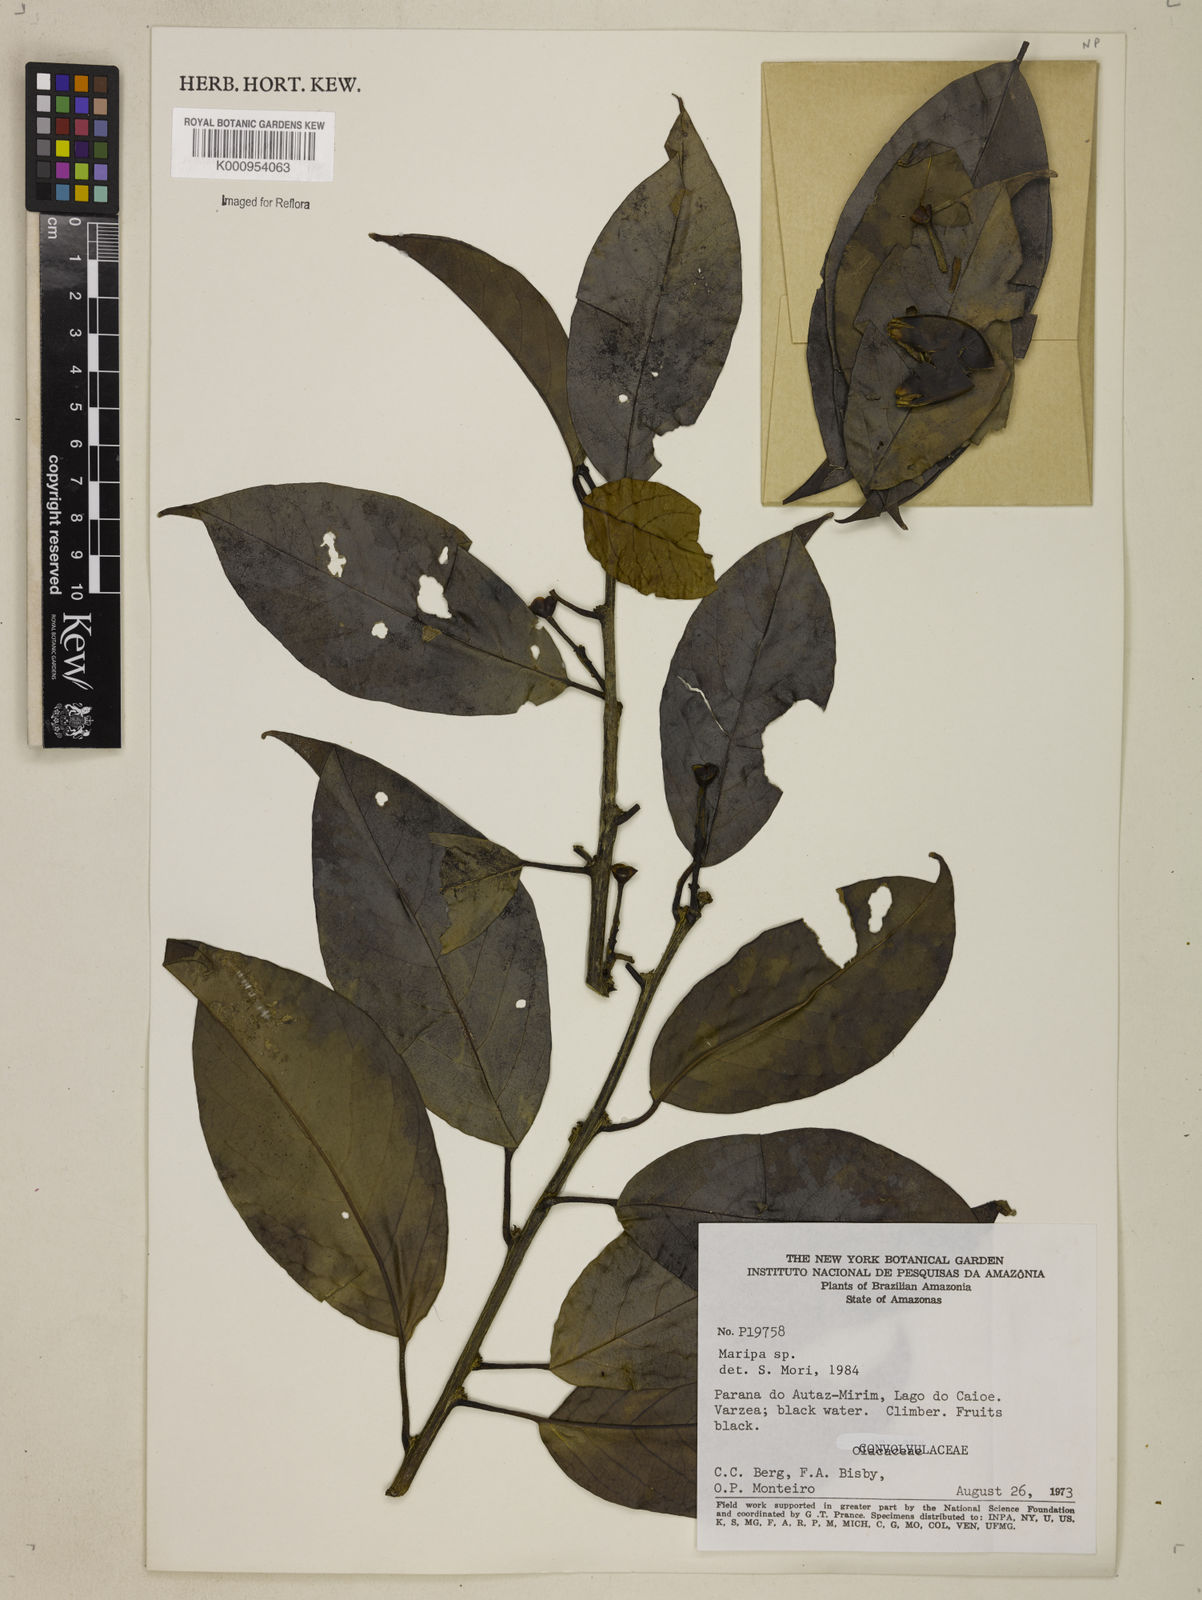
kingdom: Plantae
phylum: Tracheophyta
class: Magnoliopsida
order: Solanales
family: Convolvulaceae
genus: Maripa
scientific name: Maripa
